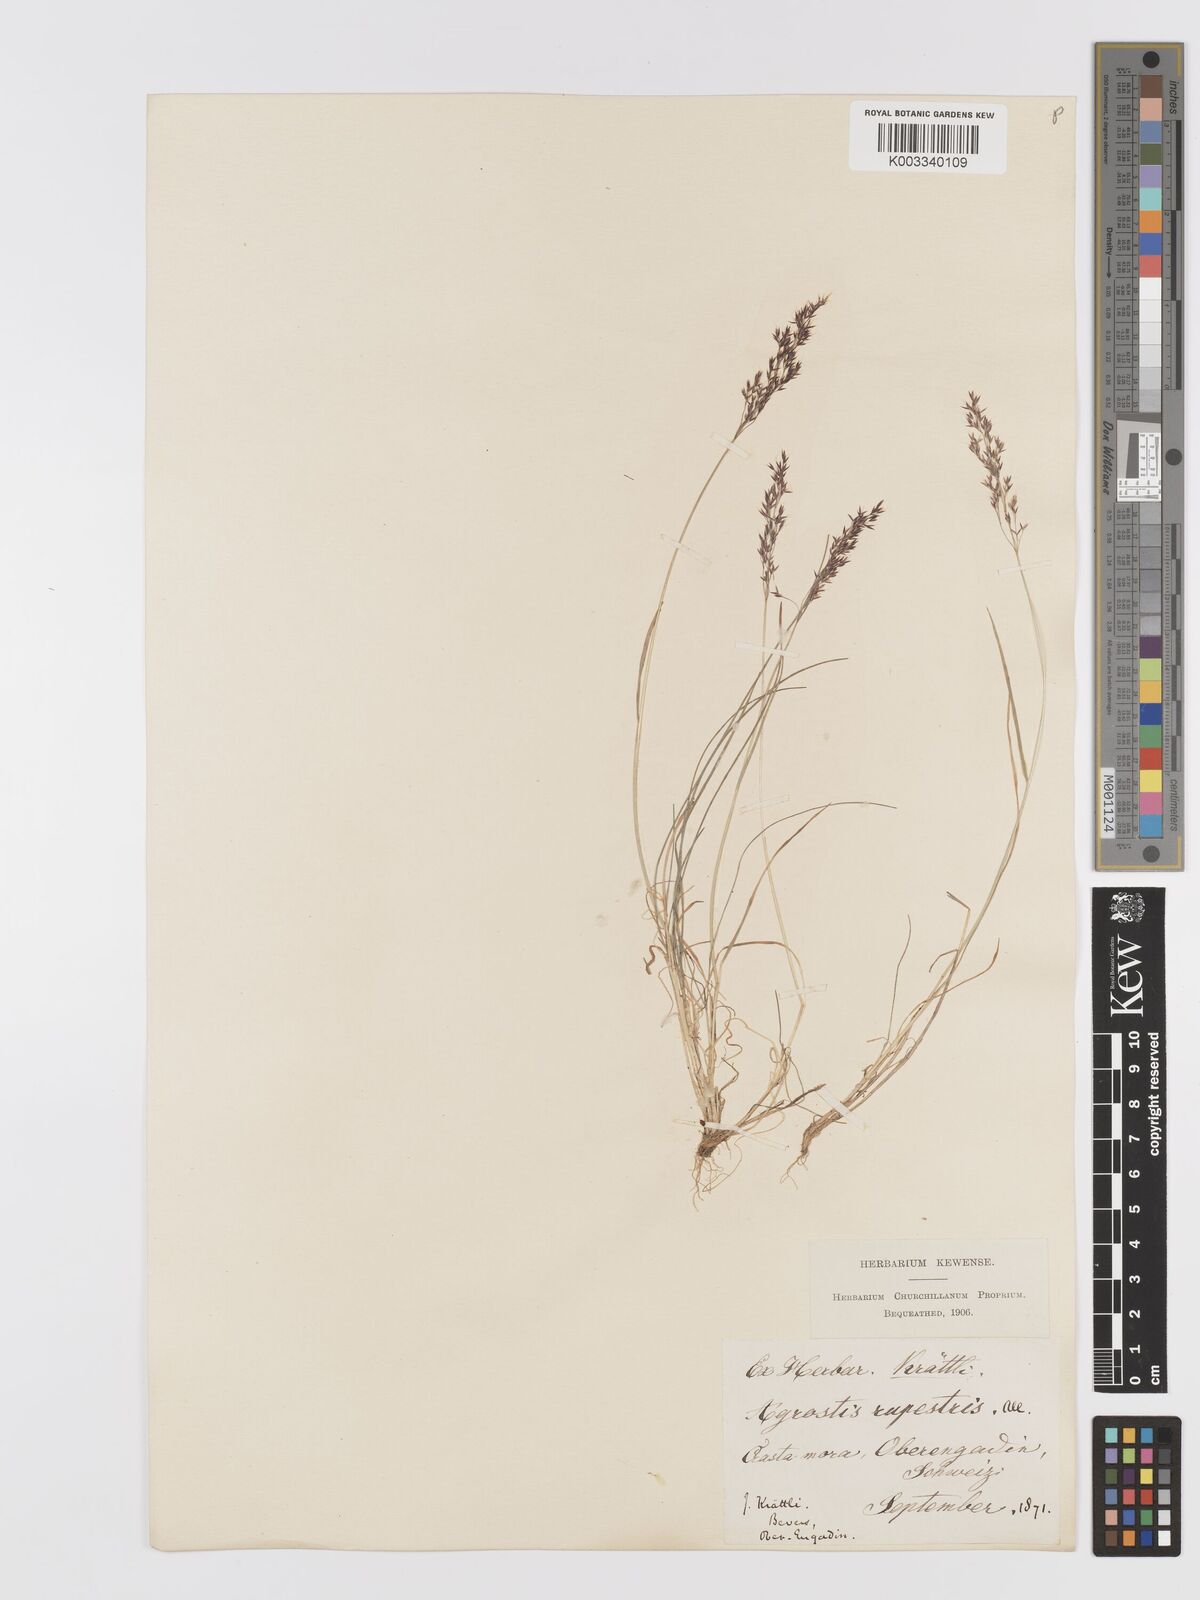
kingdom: Plantae
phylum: Tracheophyta
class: Liliopsida
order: Poales
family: Poaceae
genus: Agrostis
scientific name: Agrostis rupestris
